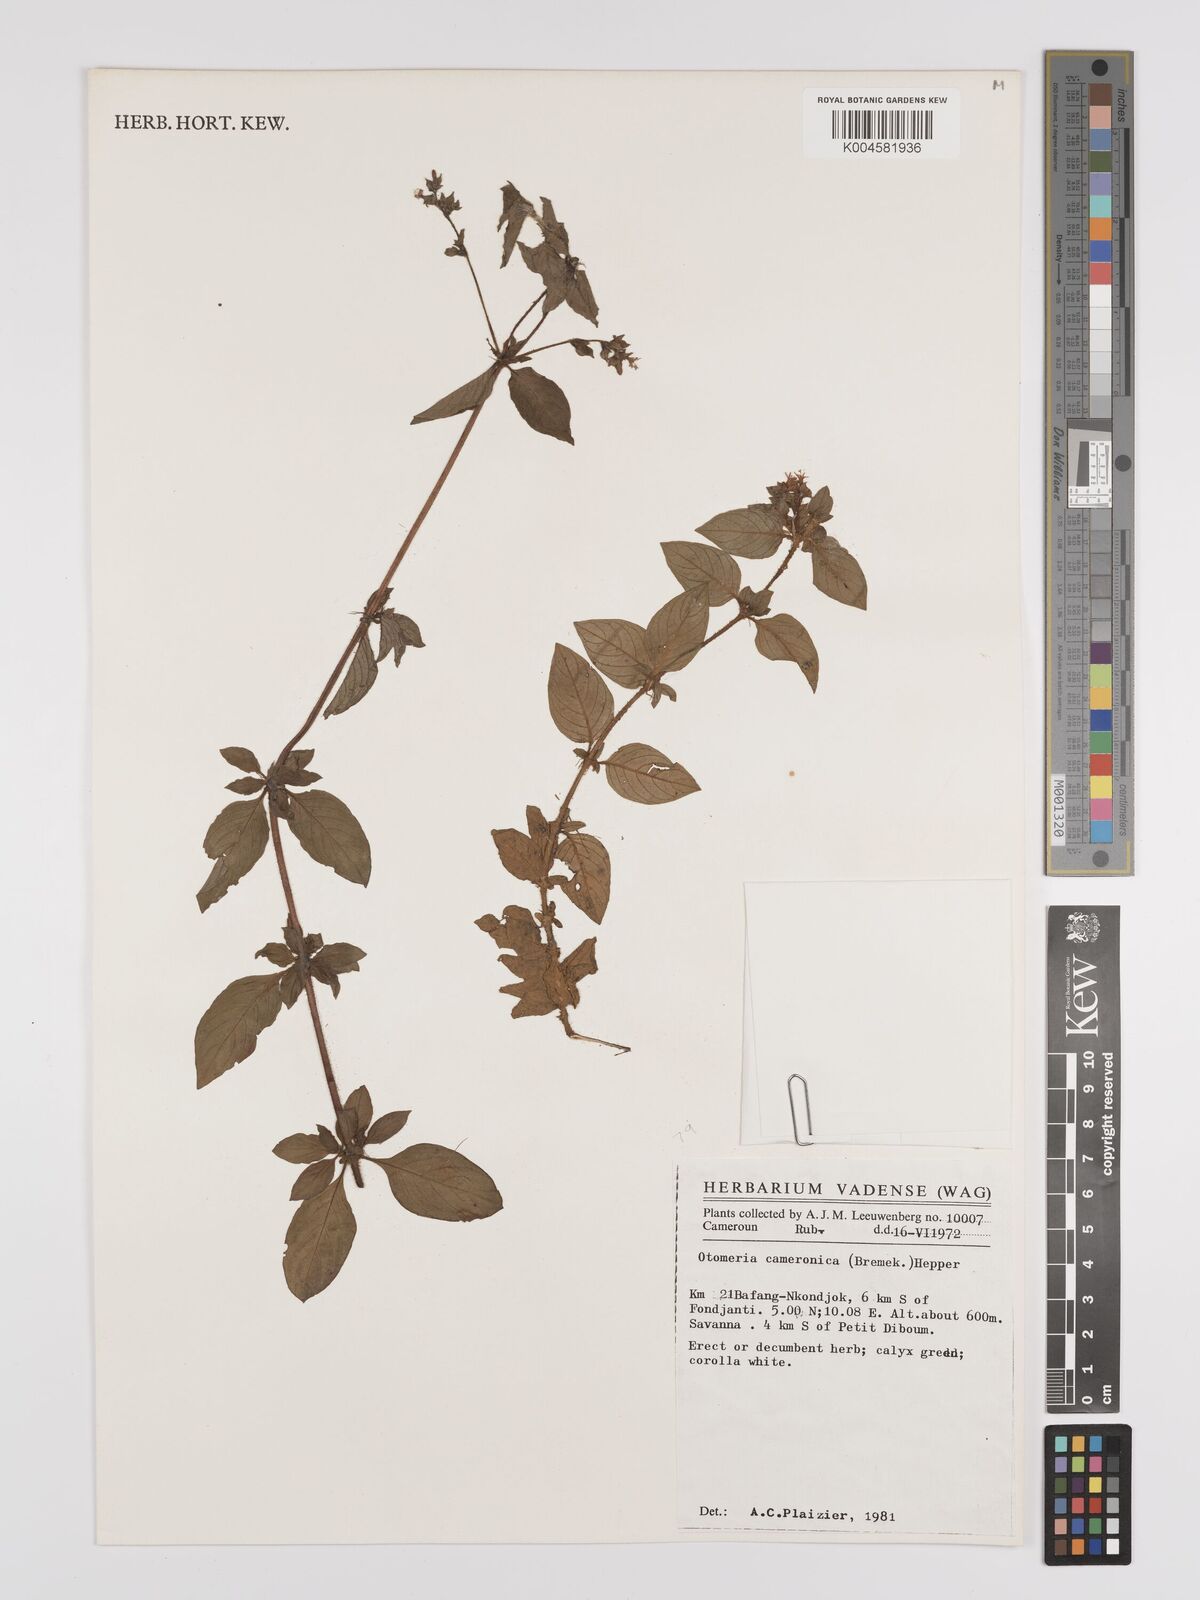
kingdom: Plantae
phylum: Tracheophyta
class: Magnoliopsida
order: Gentianales
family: Rubiaceae
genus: Otomeria
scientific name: Otomeria cameronica
